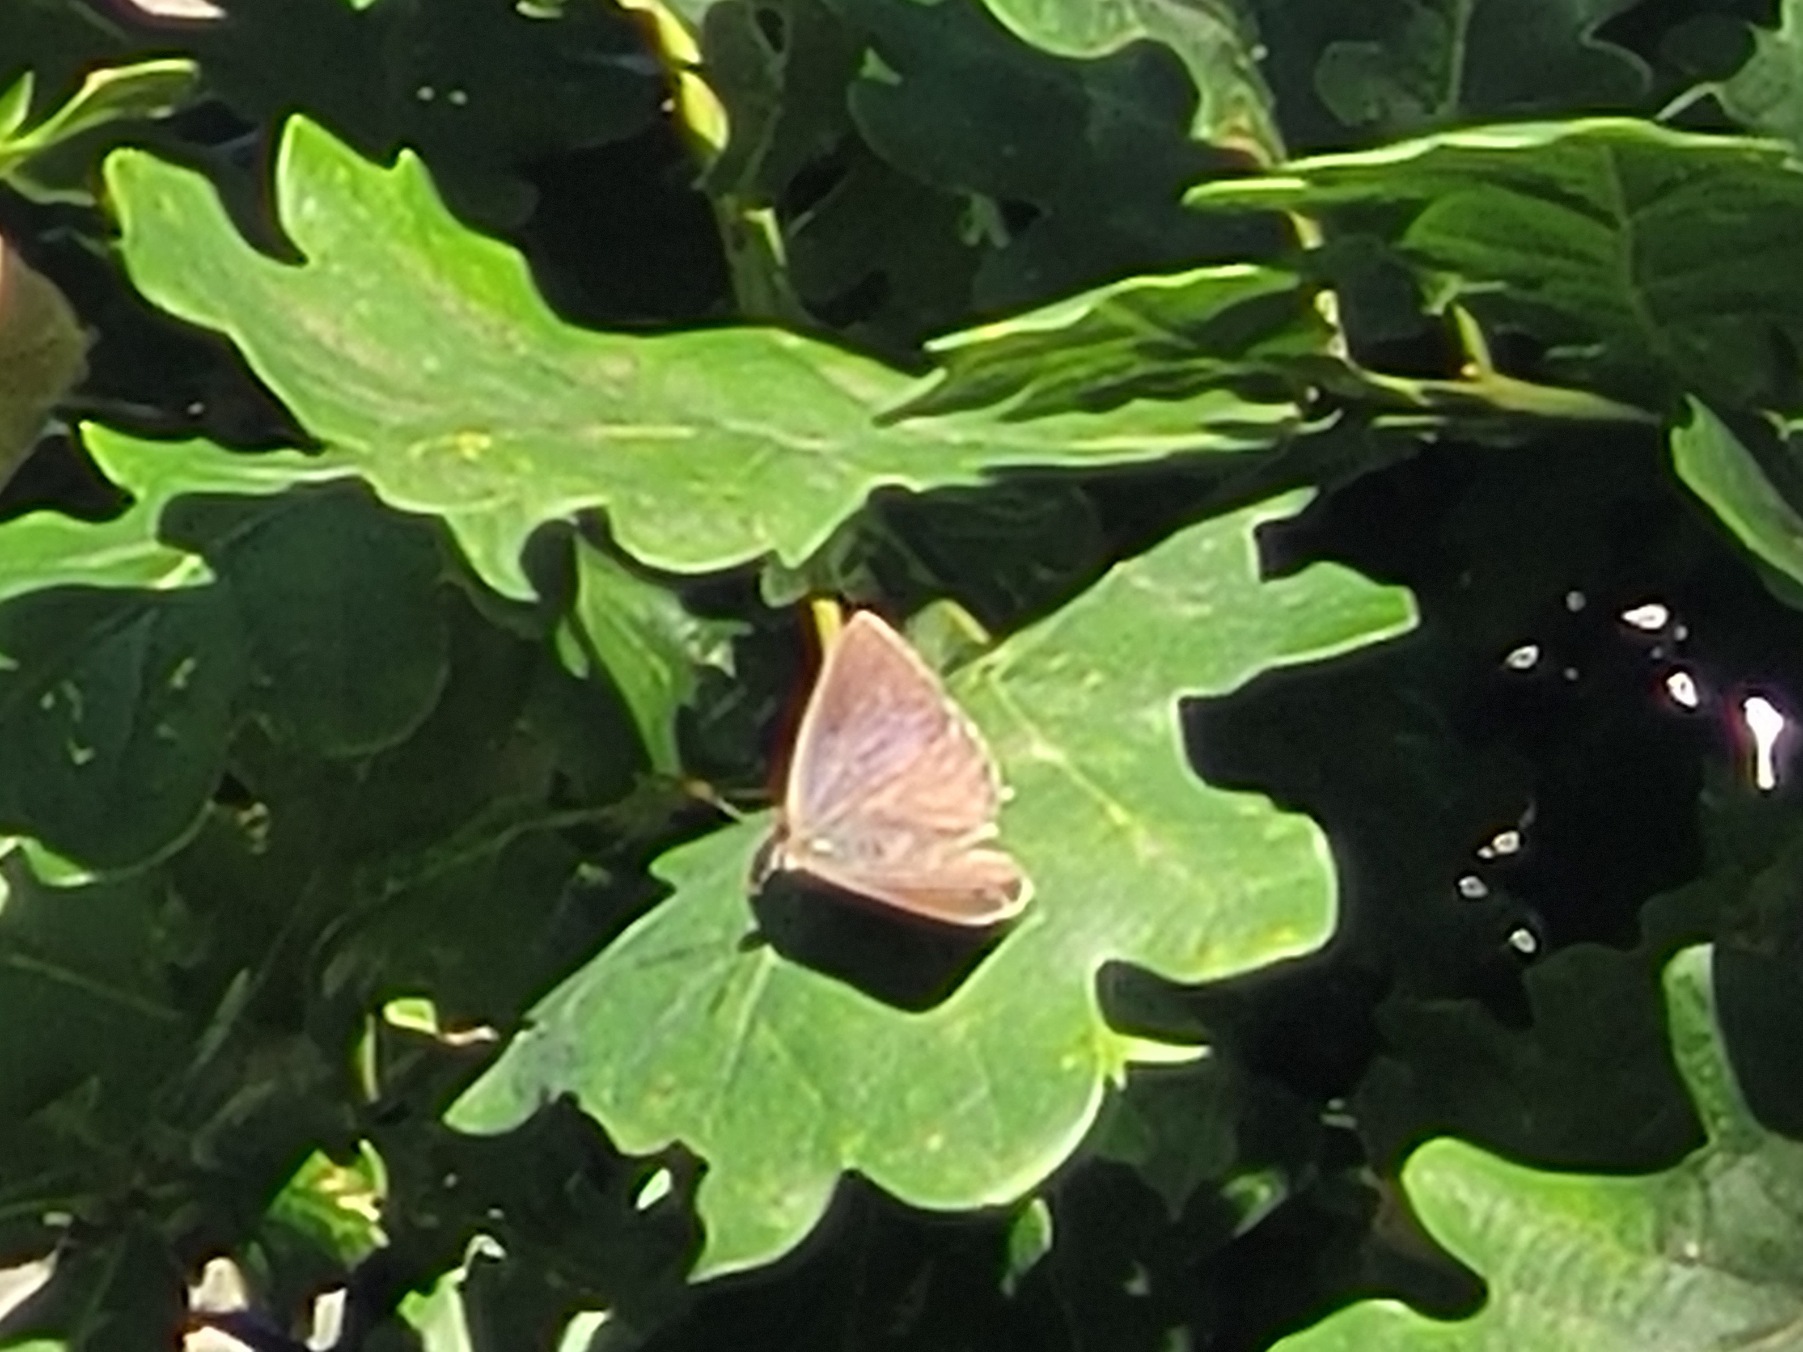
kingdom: Animalia
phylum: Arthropoda
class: Insecta
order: Lepidoptera
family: Lycaenidae
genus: Quercusia
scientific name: Quercusia quercus
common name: Blåhale
